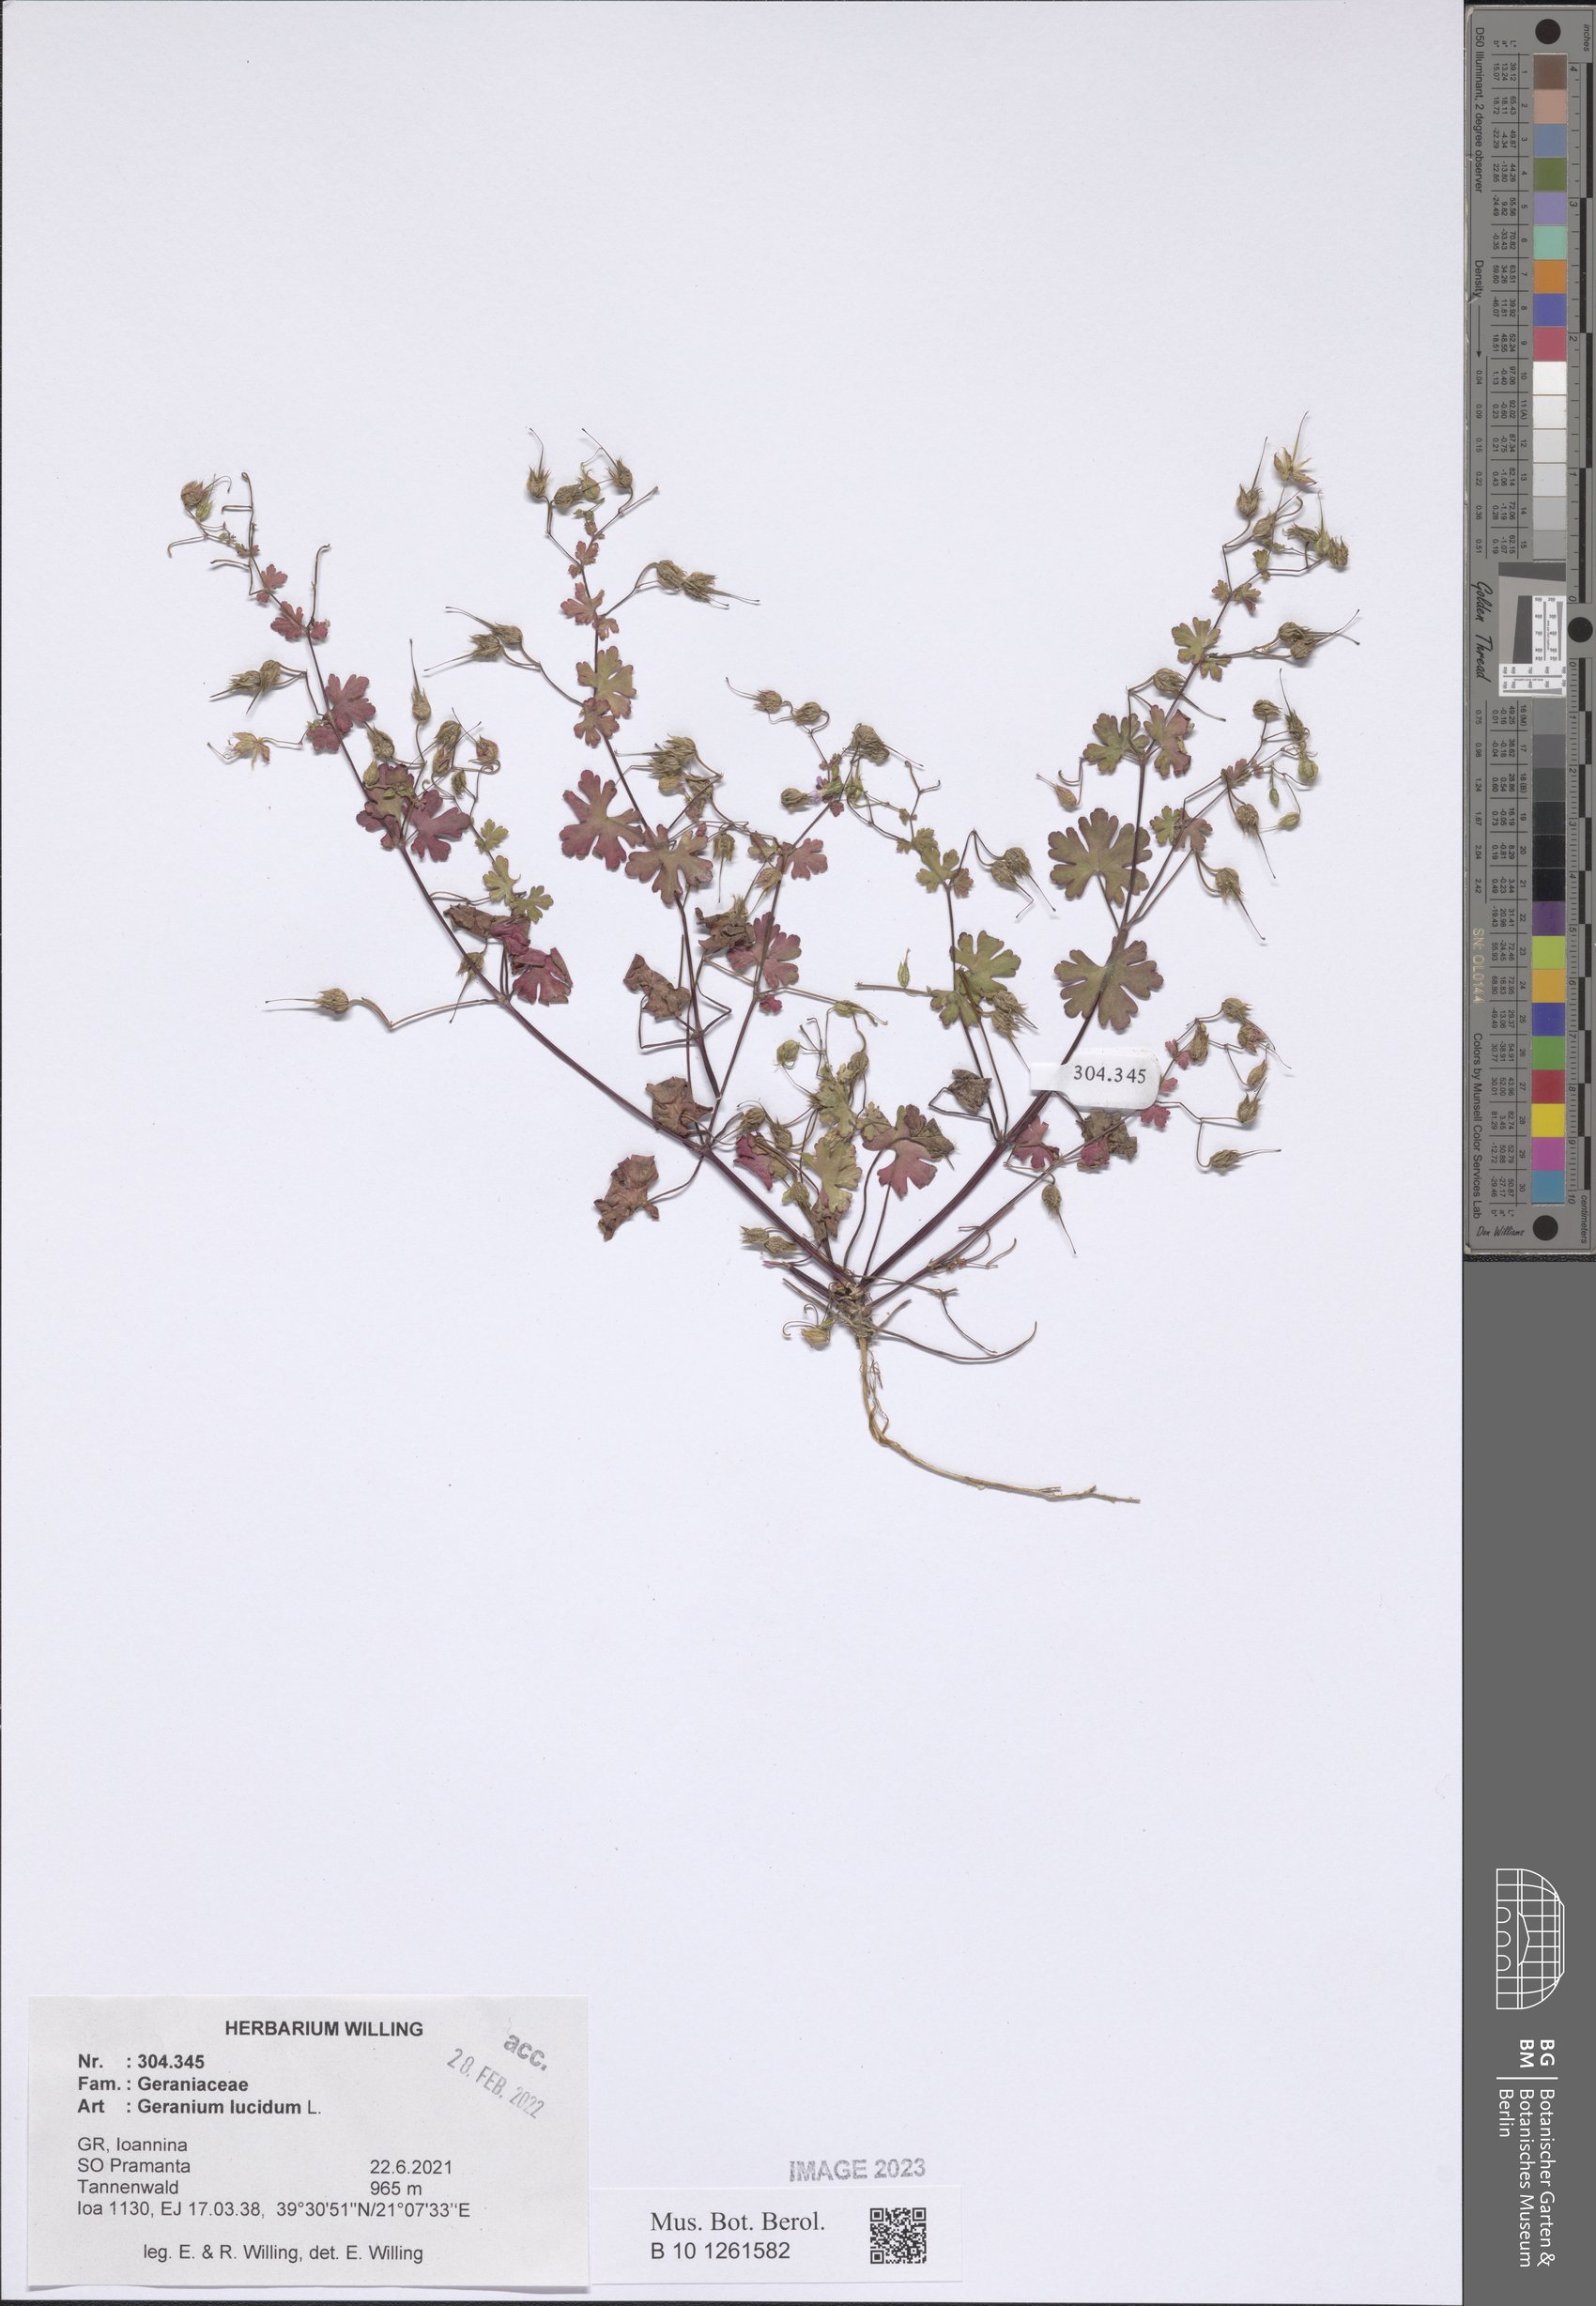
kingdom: Plantae
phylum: Tracheophyta
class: Magnoliopsida
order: Geraniales
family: Geraniaceae
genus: Geranium
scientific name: Geranium lucidum
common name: Shining crane's-bill
